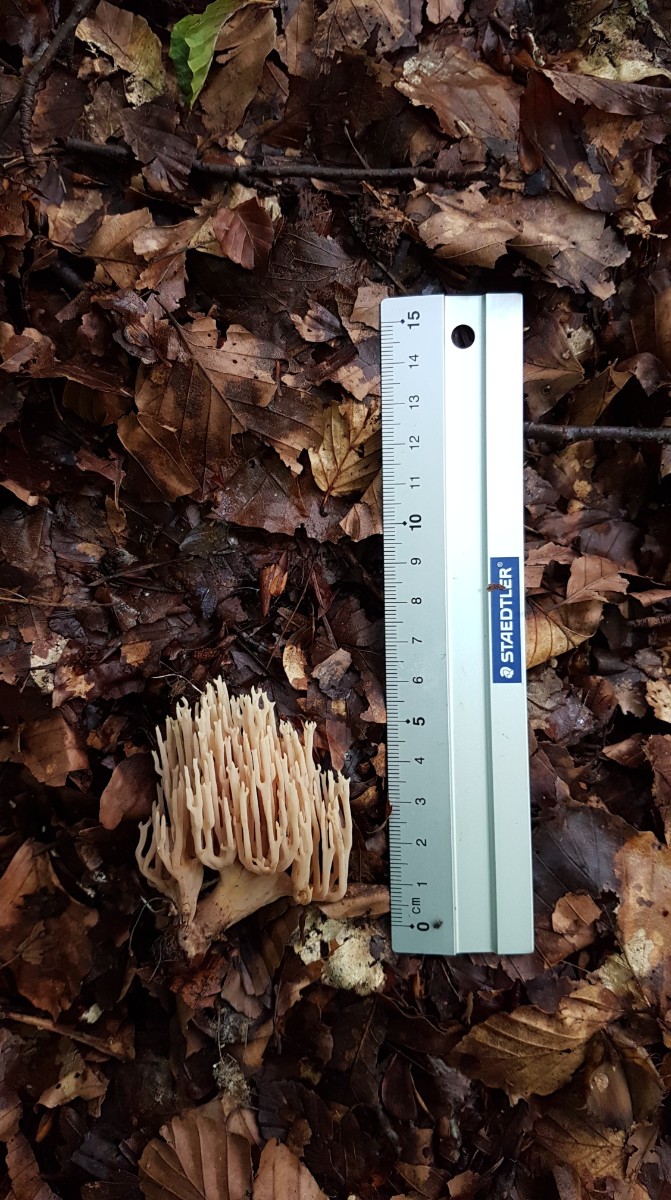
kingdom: Fungi
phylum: Basidiomycota
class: Agaricomycetes
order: Gomphales
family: Gomphaceae
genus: Ramaria
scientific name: Ramaria stricta
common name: rank koralsvamp
